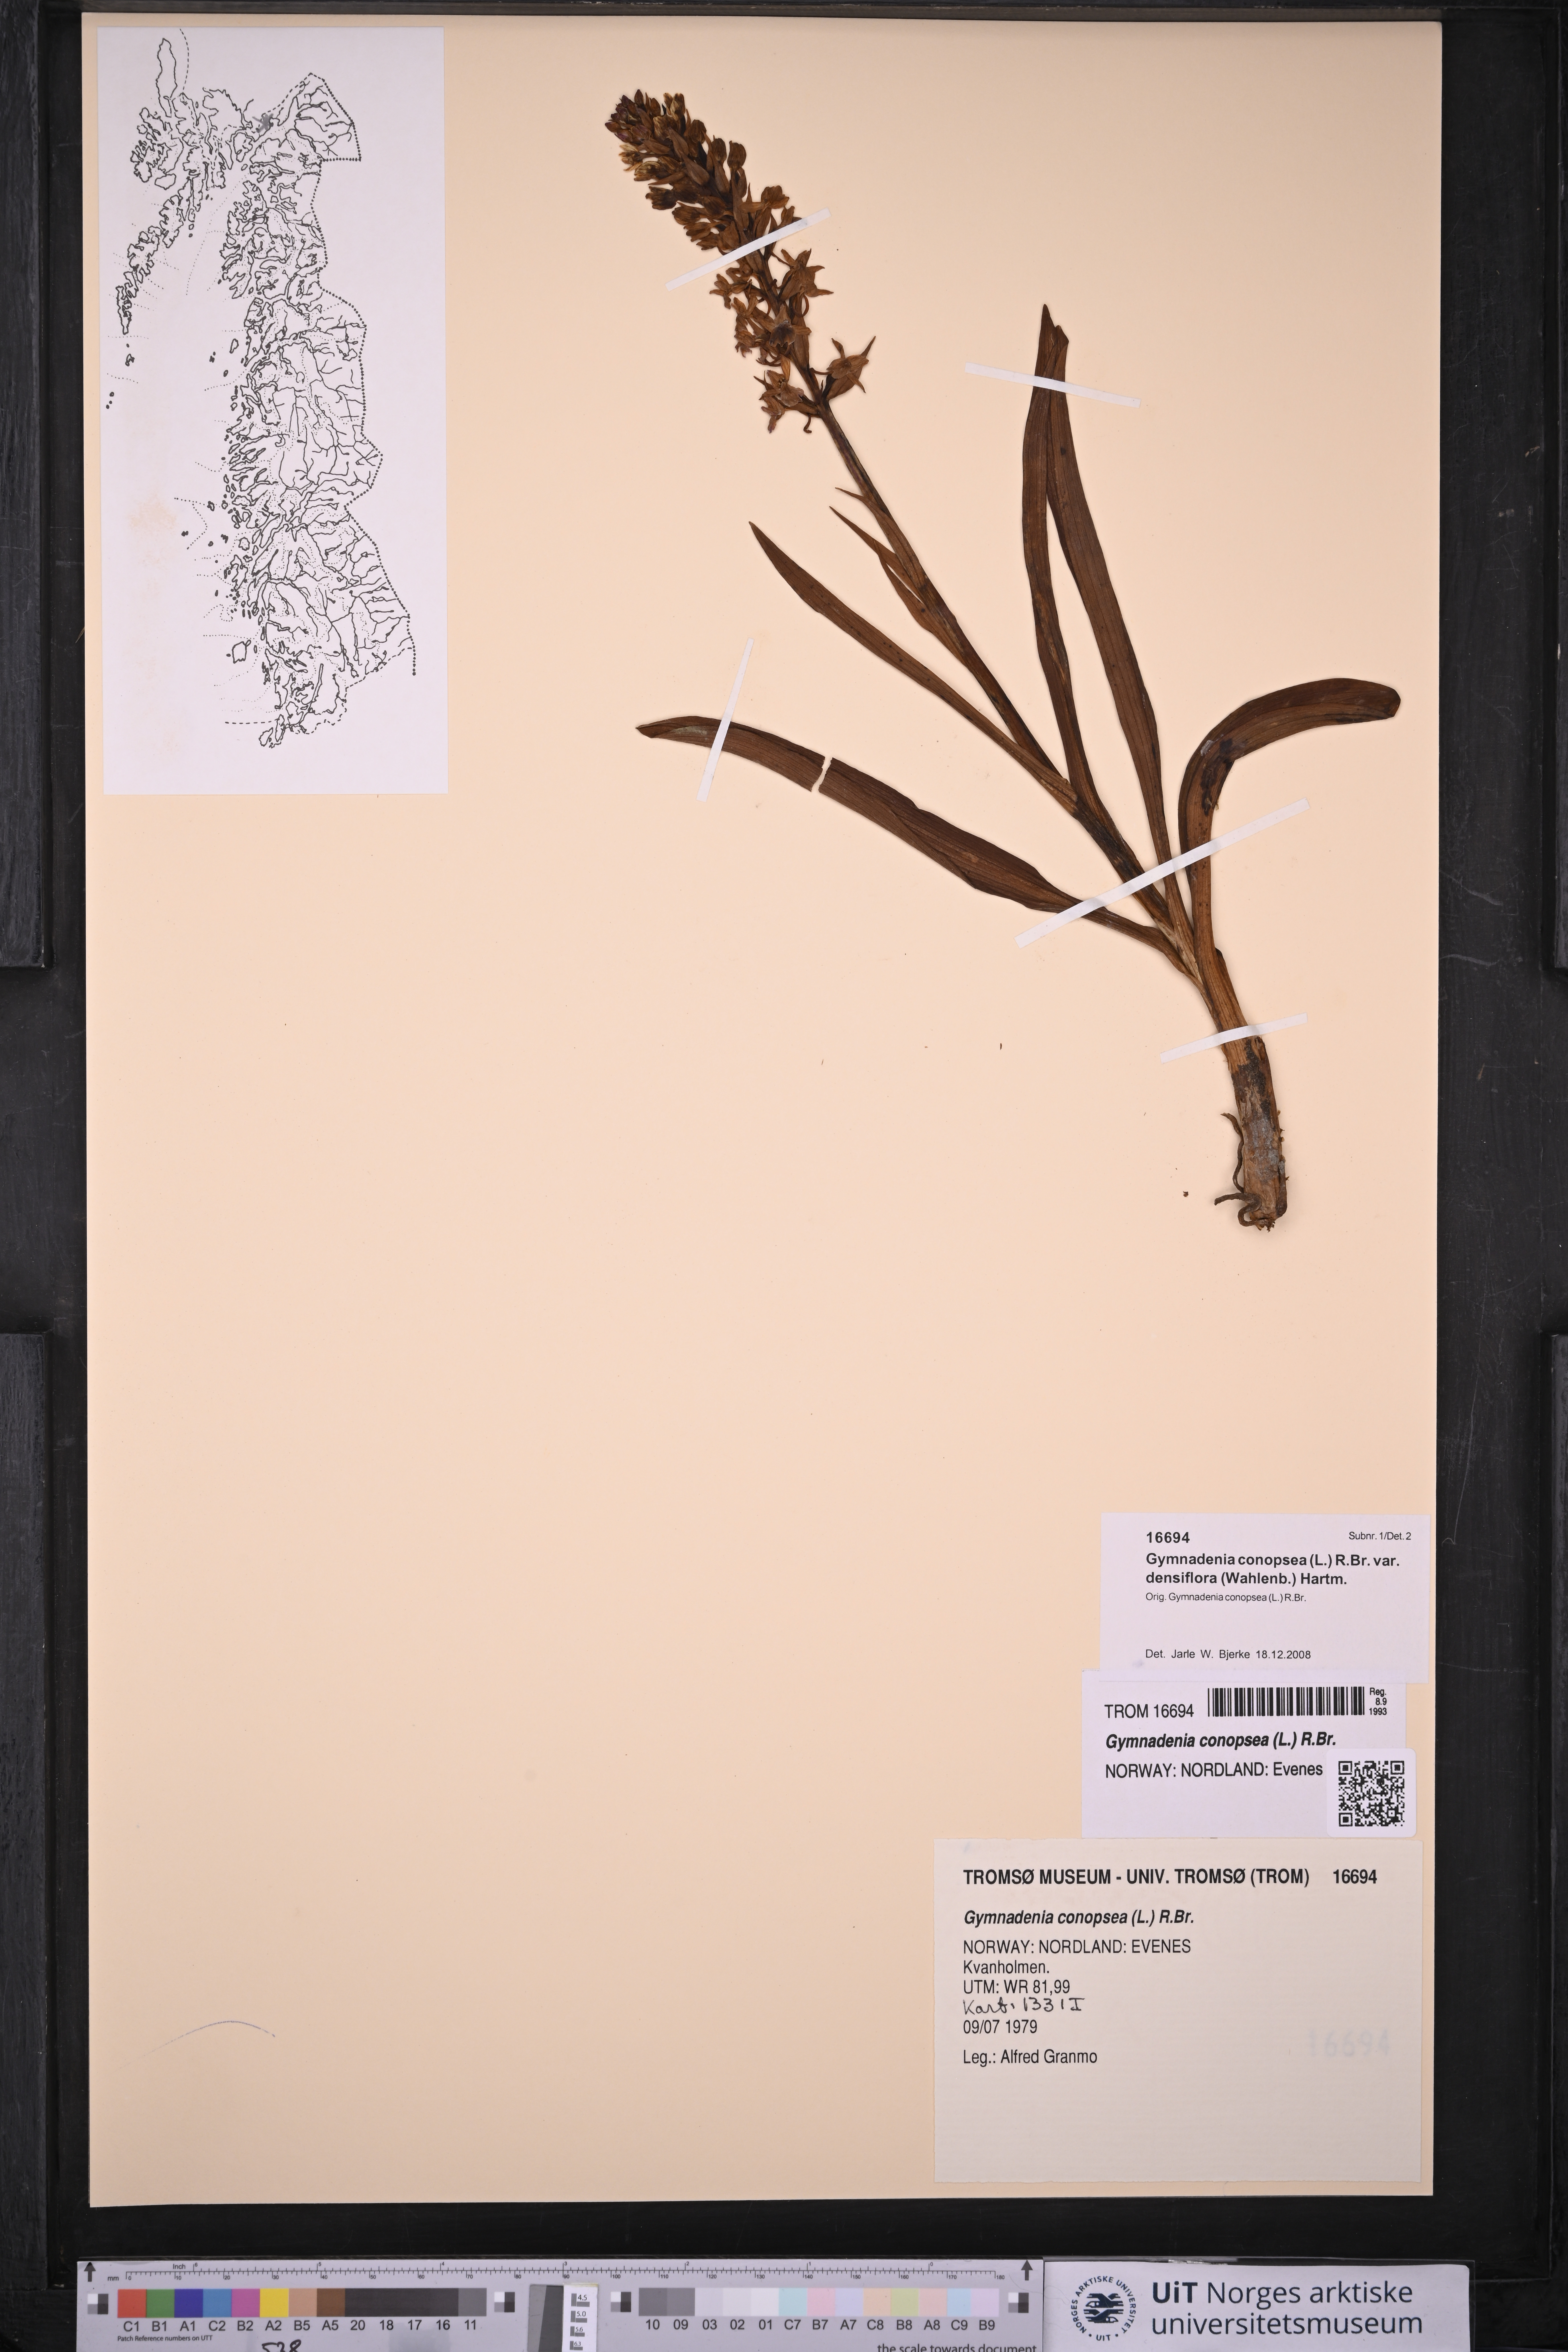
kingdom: Plantae
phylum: Tracheophyta
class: Liliopsida
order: Asparagales
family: Orchidaceae
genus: Gymnadenia
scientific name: Gymnadenia densiflora
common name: Marsh fragrant-orchid
